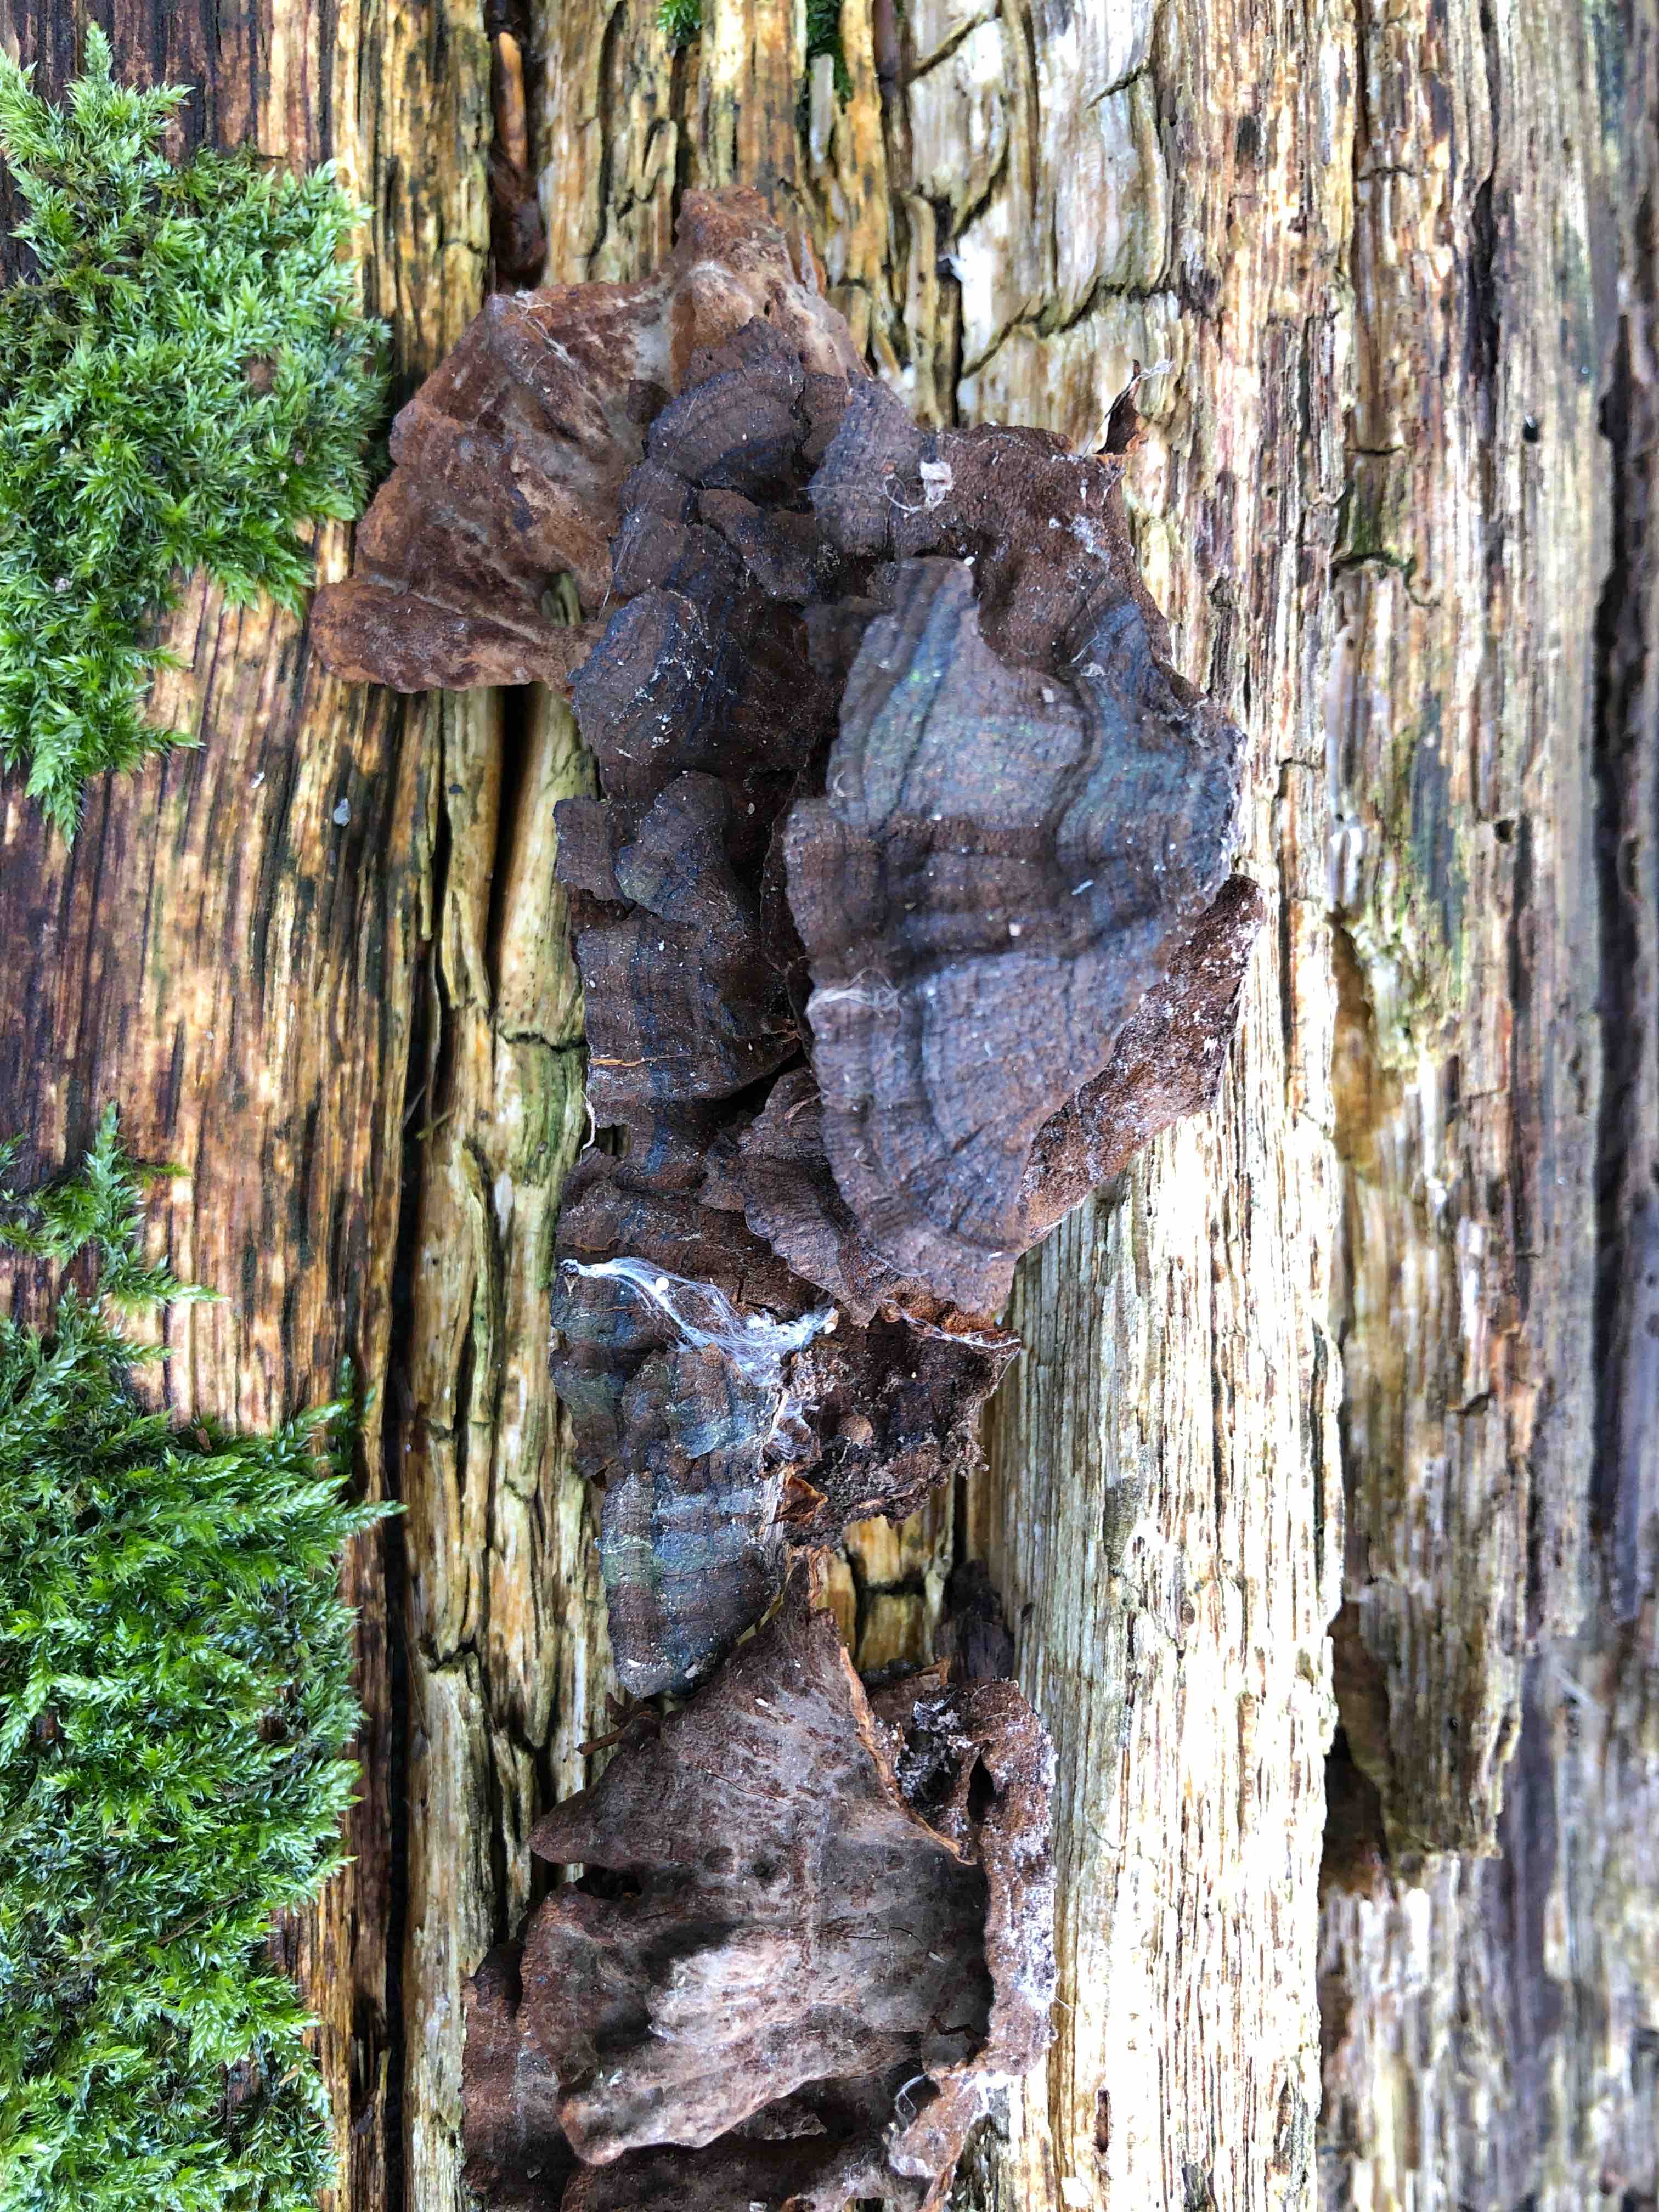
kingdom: Fungi
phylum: Basidiomycota
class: Agaricomycetes
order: Hymenochaetales
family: Hymenochaetaceae
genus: Hymenochaete
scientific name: Hymenochaete rubiginosa
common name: stiv ruslædersvamp
